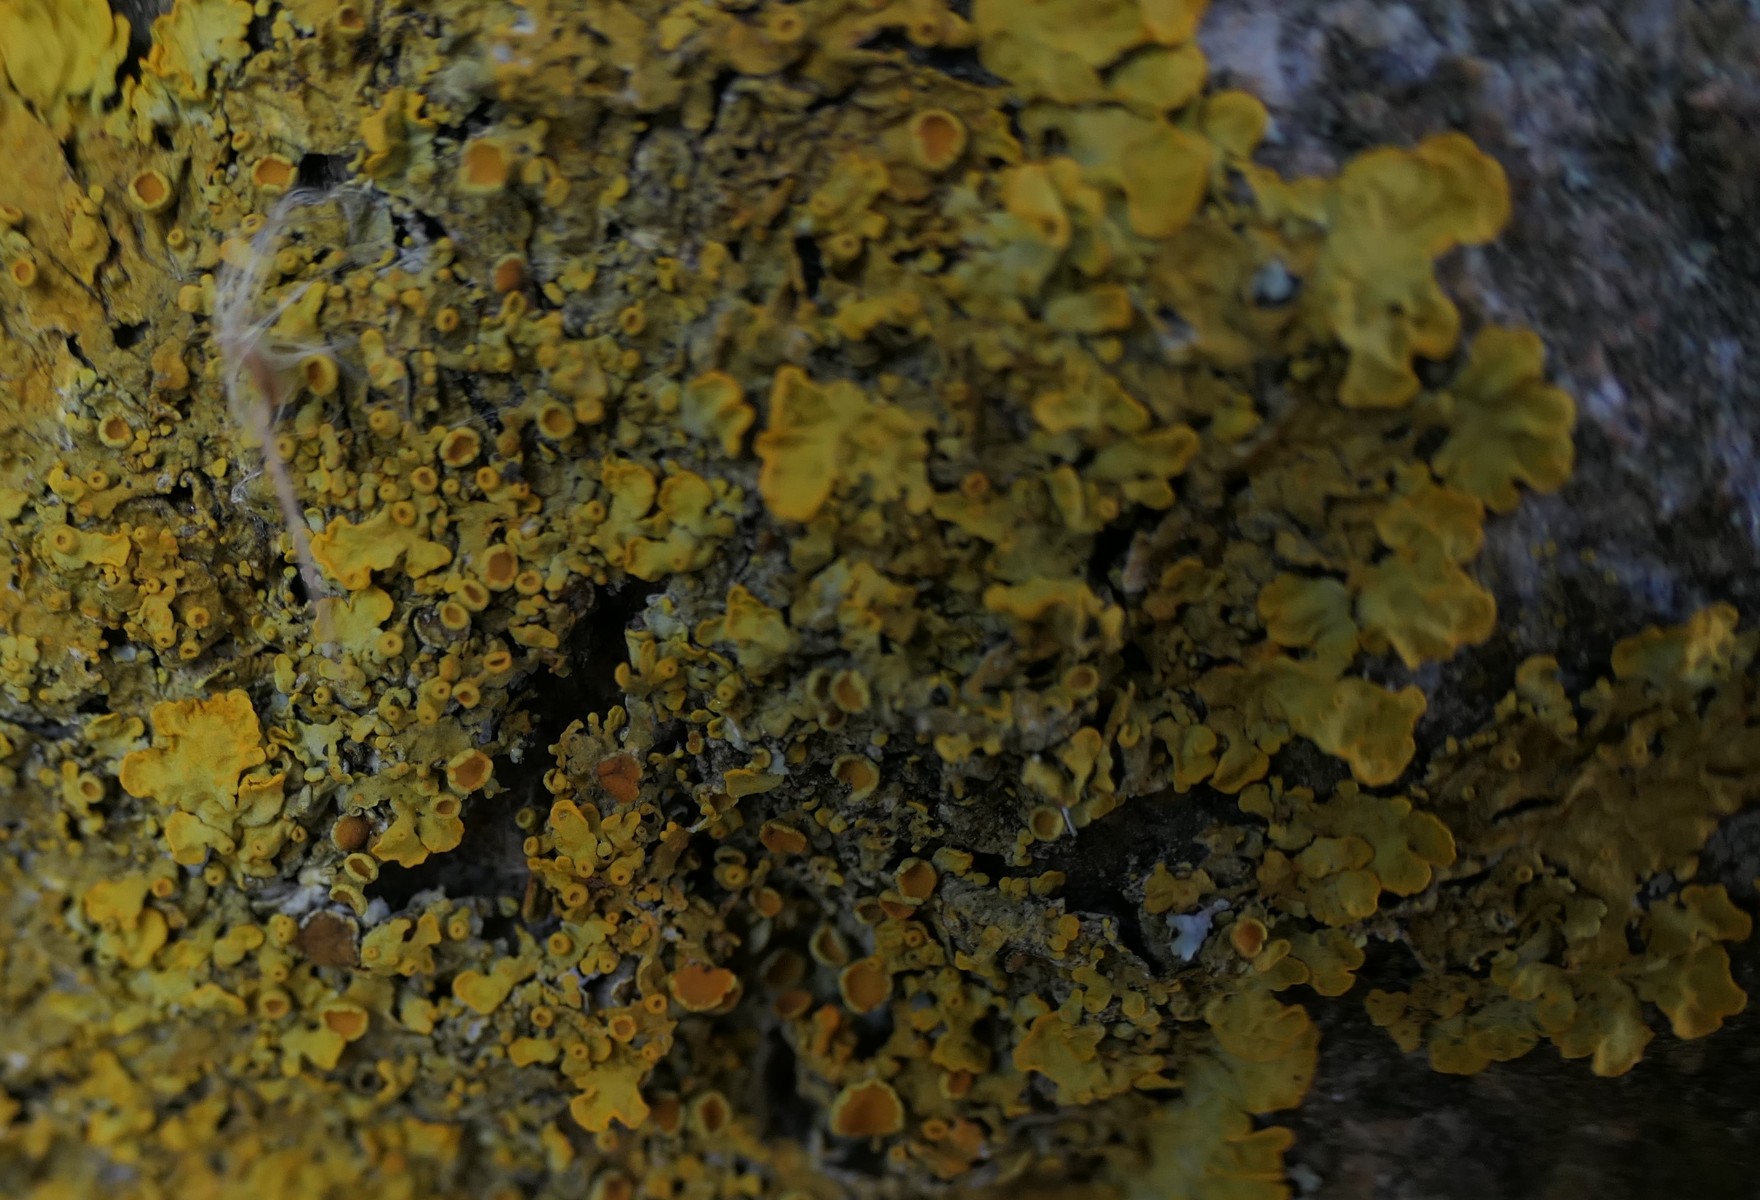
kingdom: Fungi
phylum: Ascomycota
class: Lecanoromycetes
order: Teloschistales
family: Teloschistaceae
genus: Xanthoria
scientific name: Xanthoria parietina
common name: almindelig væggelav
